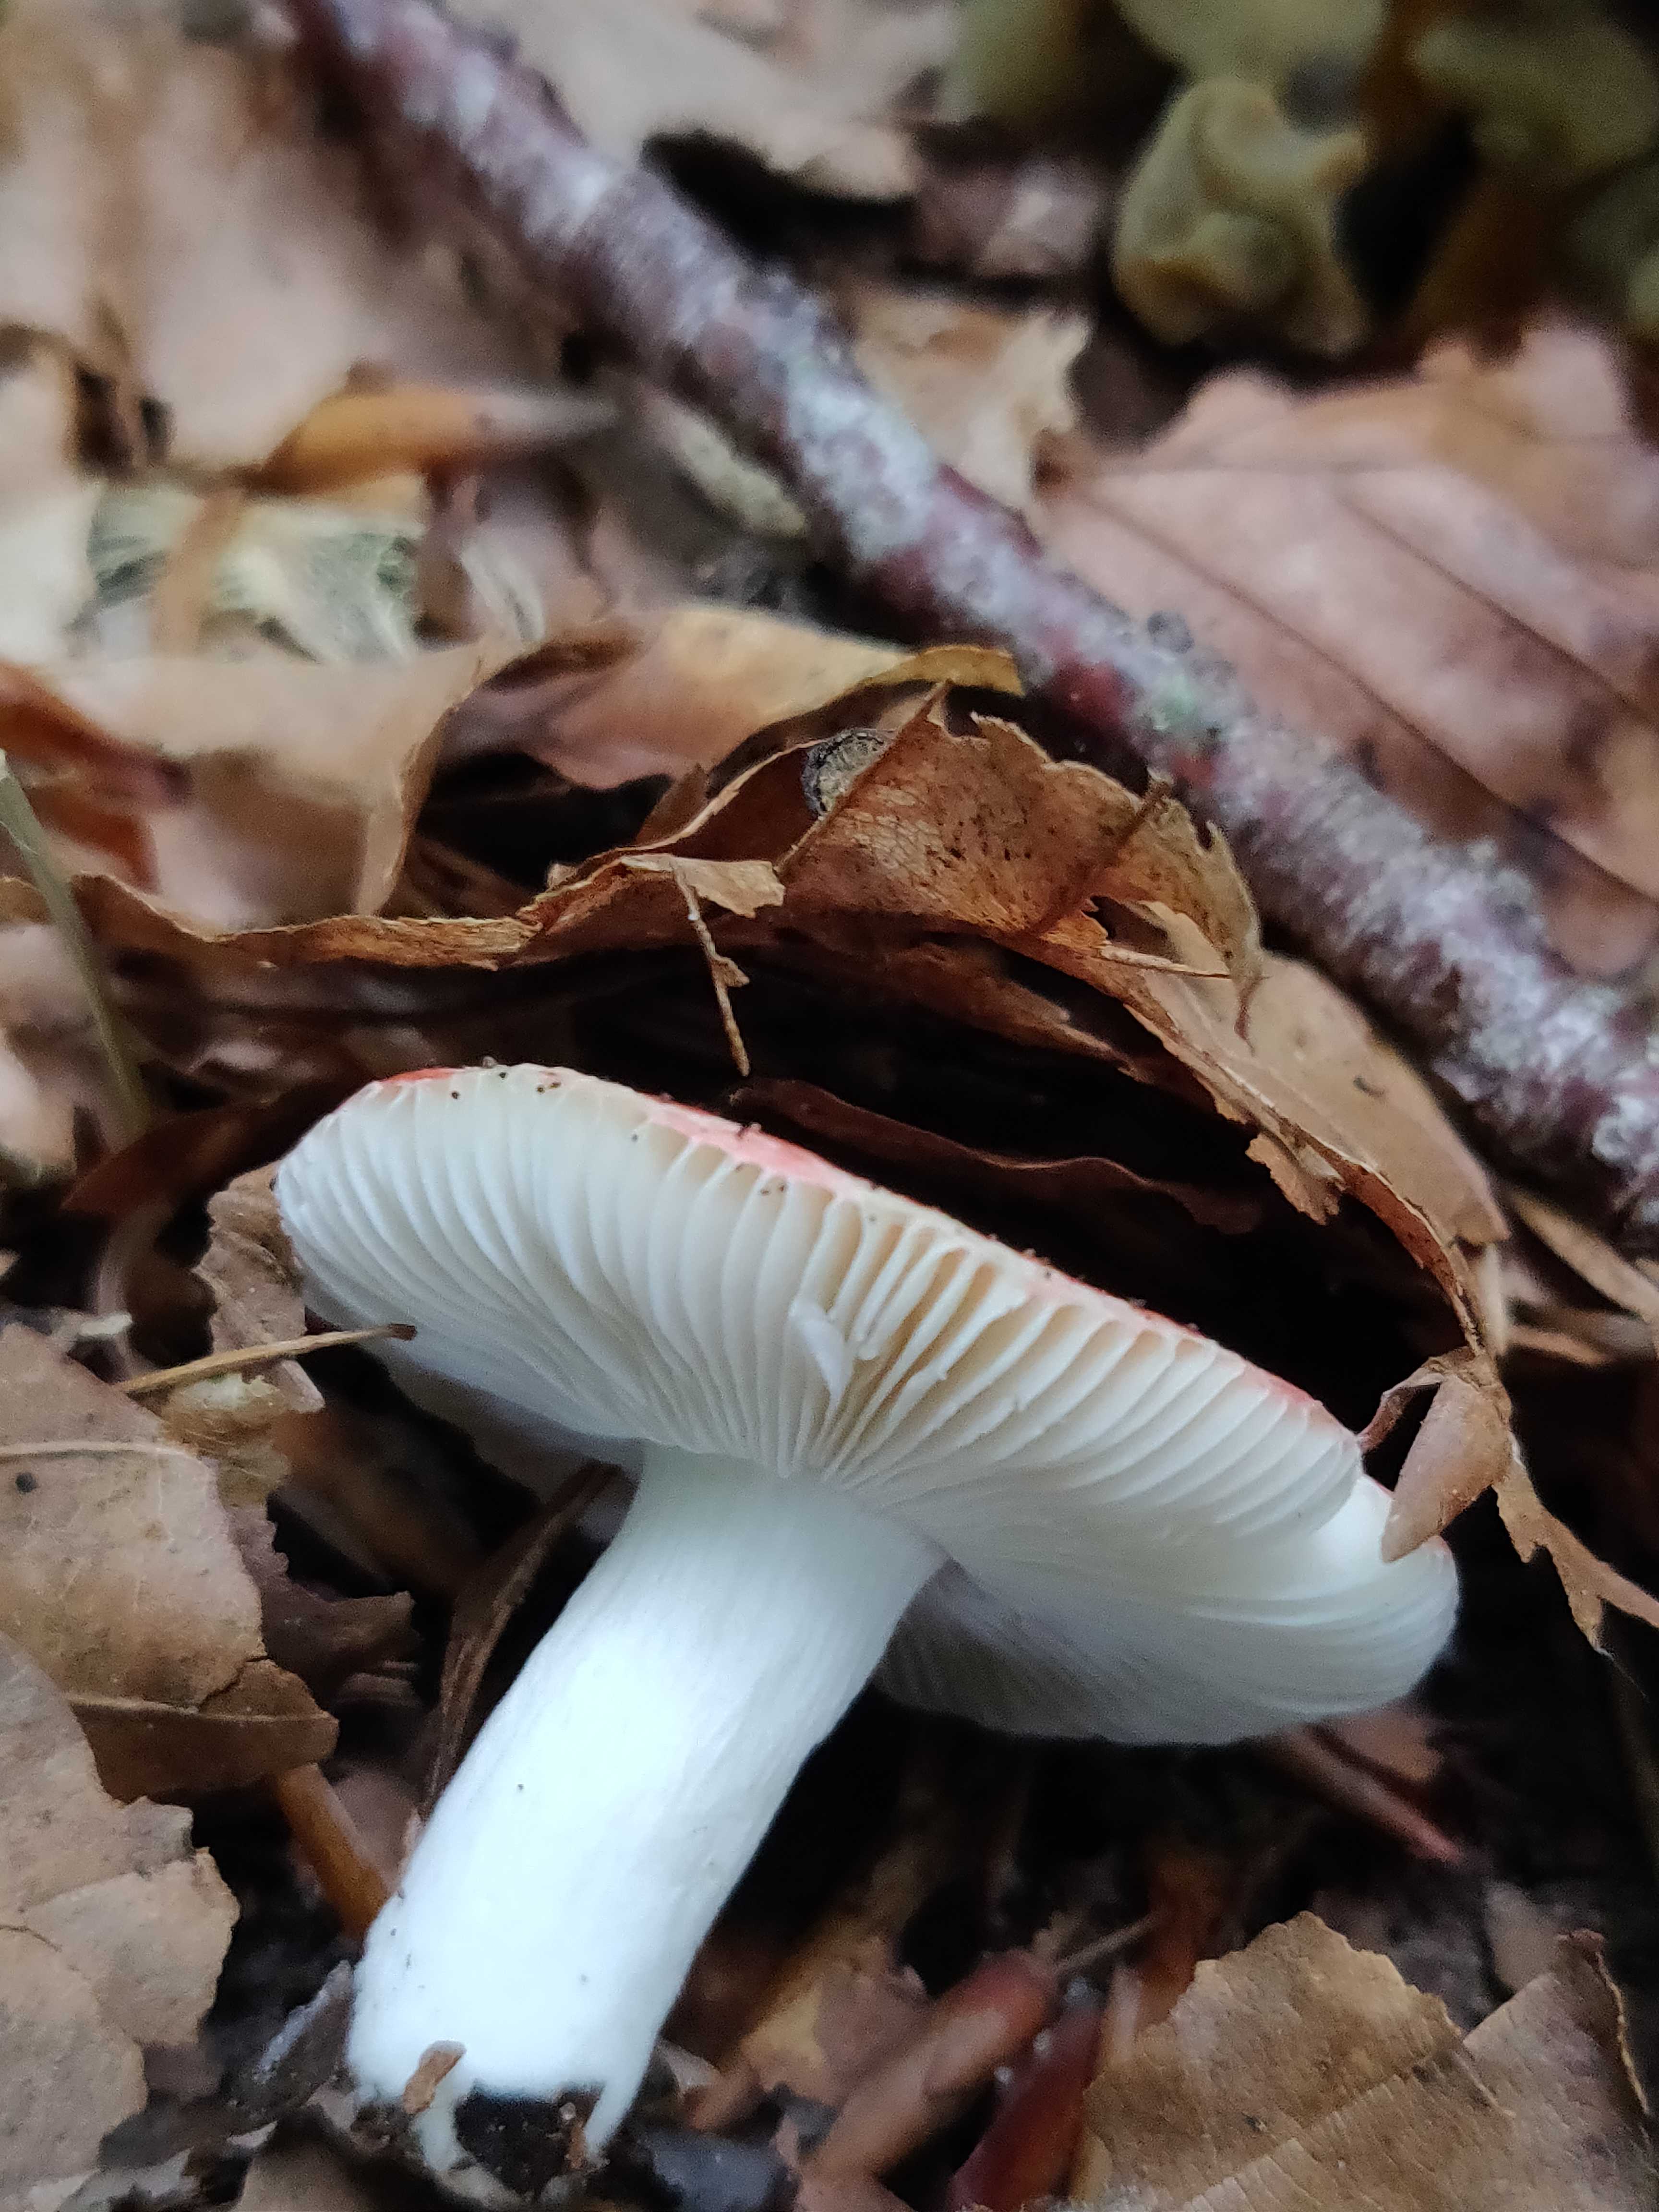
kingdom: Fungi
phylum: Basidiomycota
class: Agaricomycetes
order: Russulales
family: Russulaceae
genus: Russula
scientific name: Russula
